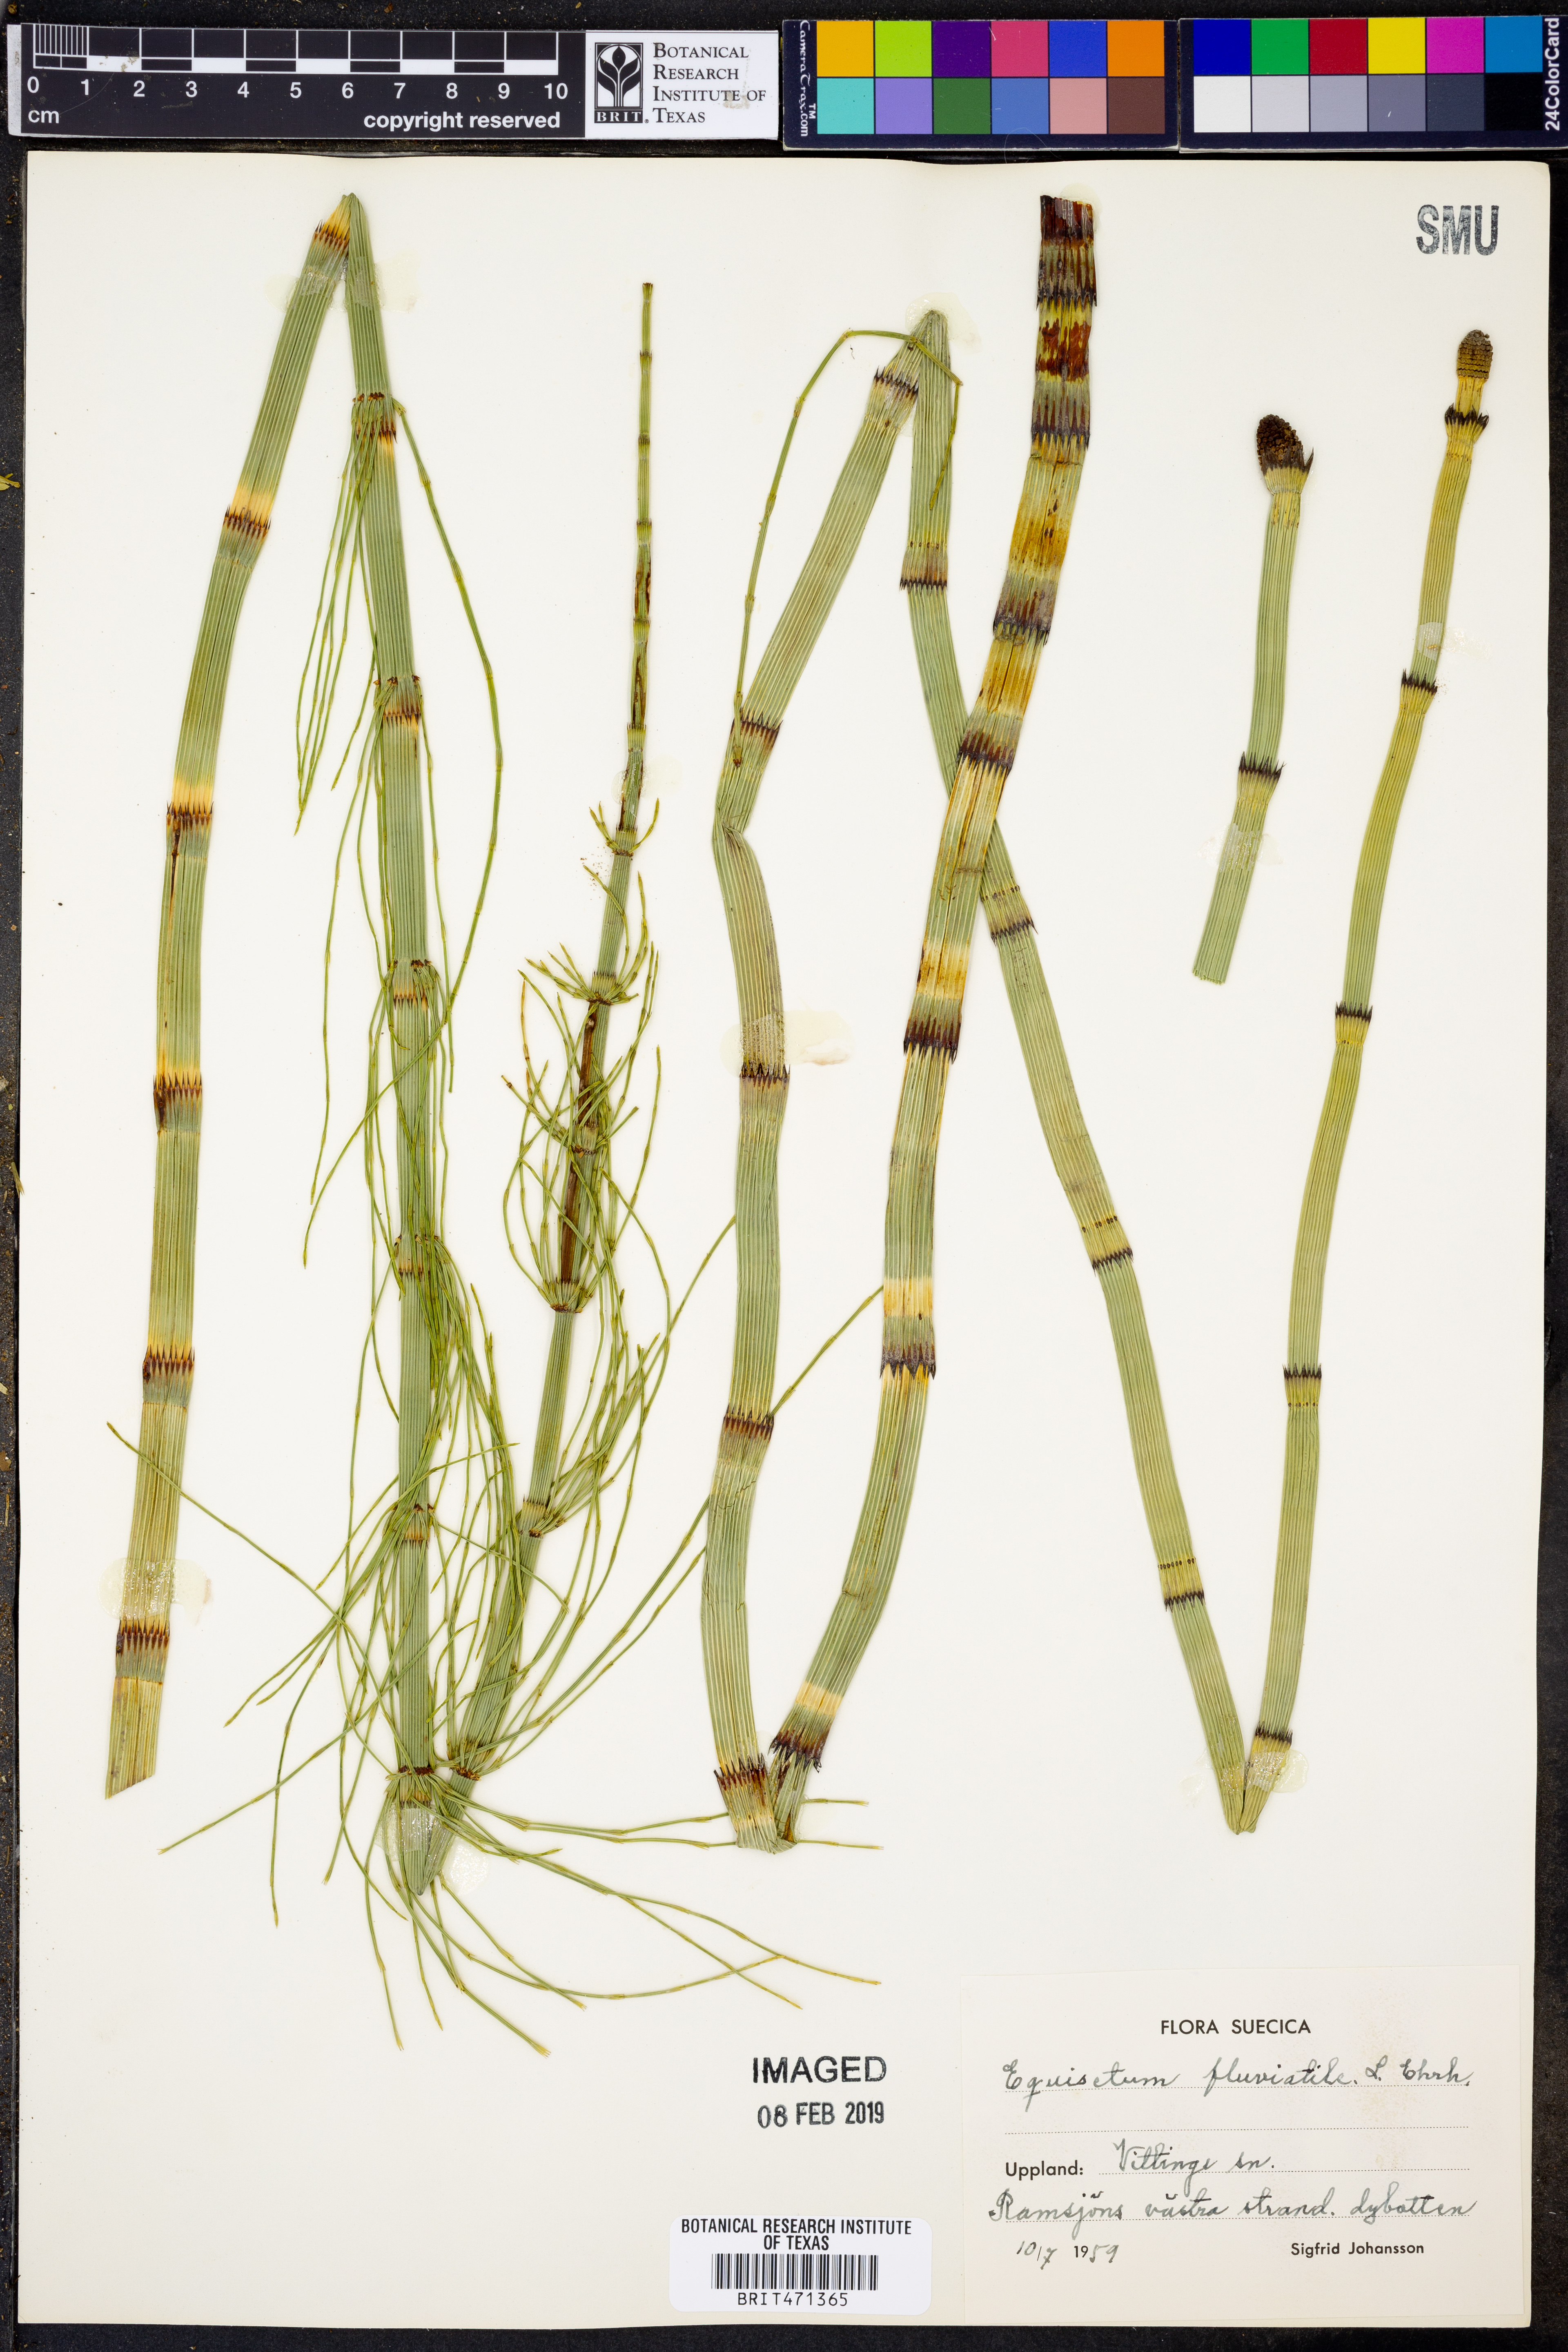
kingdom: Plantae
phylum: Tracheophyta
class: Polypodiopsida
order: Equisetales
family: Equisetaceae
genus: Equisetum
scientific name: Equisetum fluviatile
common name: Water horsetail
